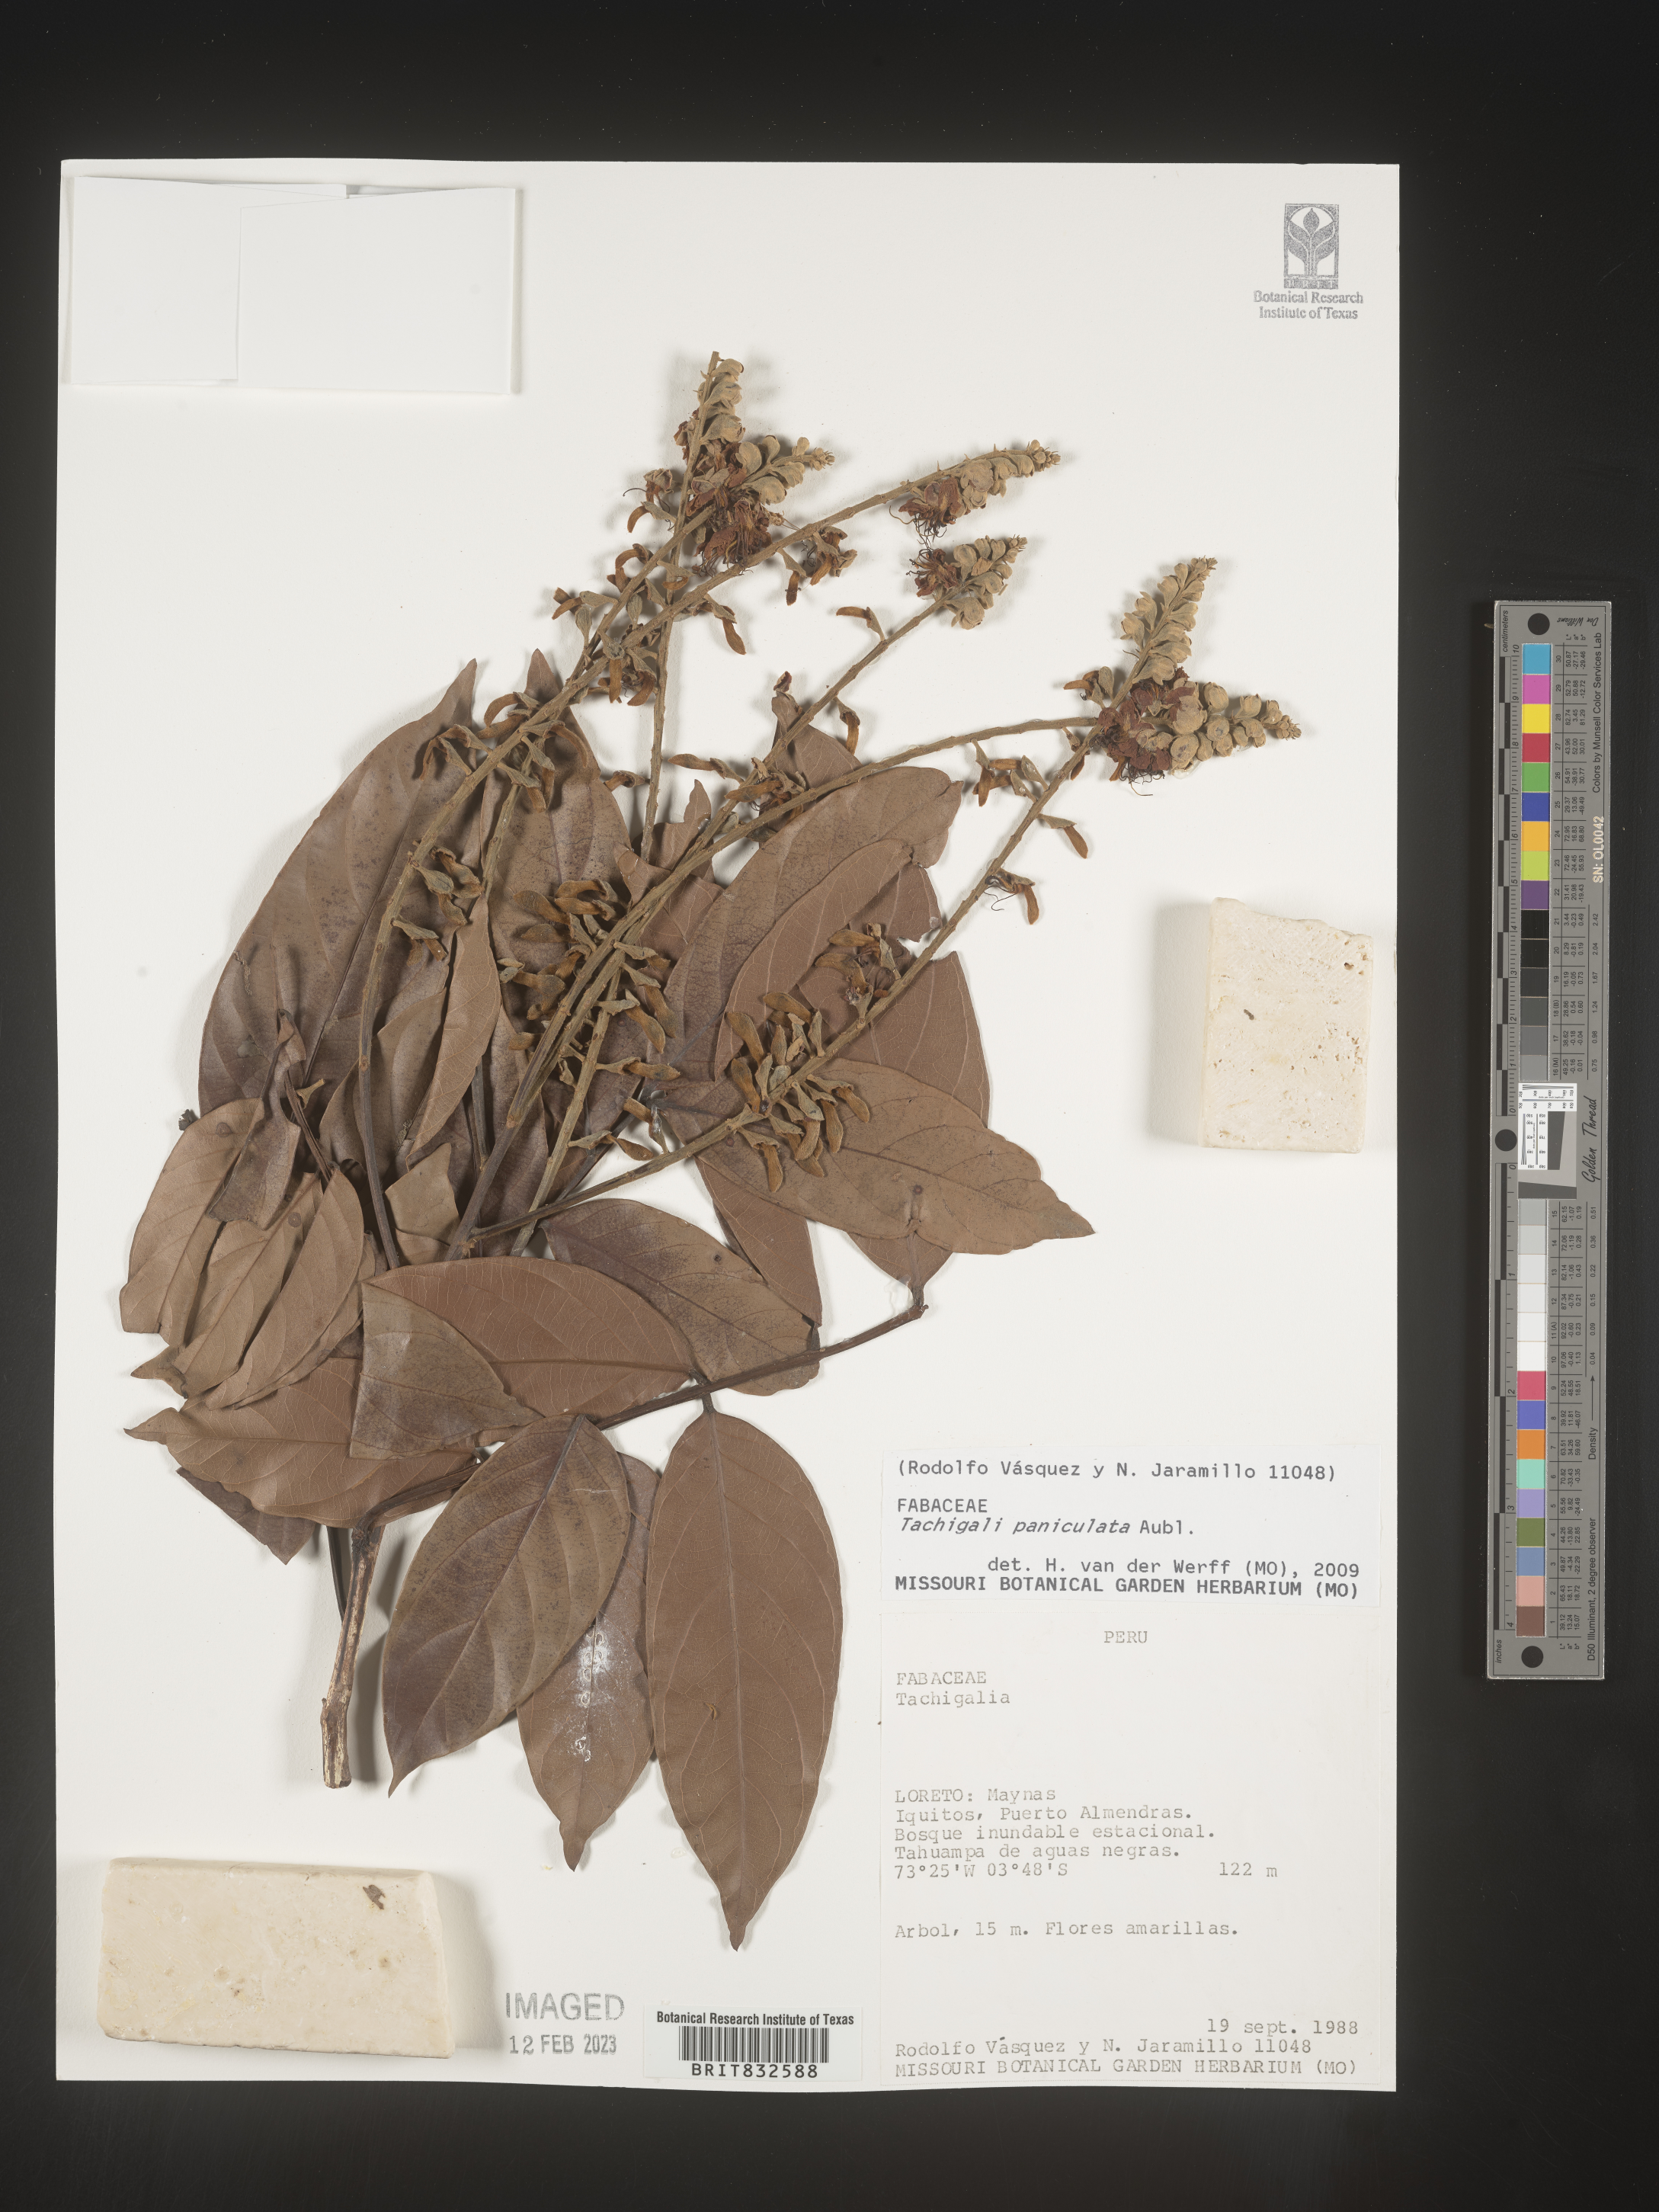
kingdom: Plantae
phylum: Tracheophyta
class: Magnoliopsida
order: Fabales
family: Fabaceae
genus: Tachigali
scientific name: Tachigali
